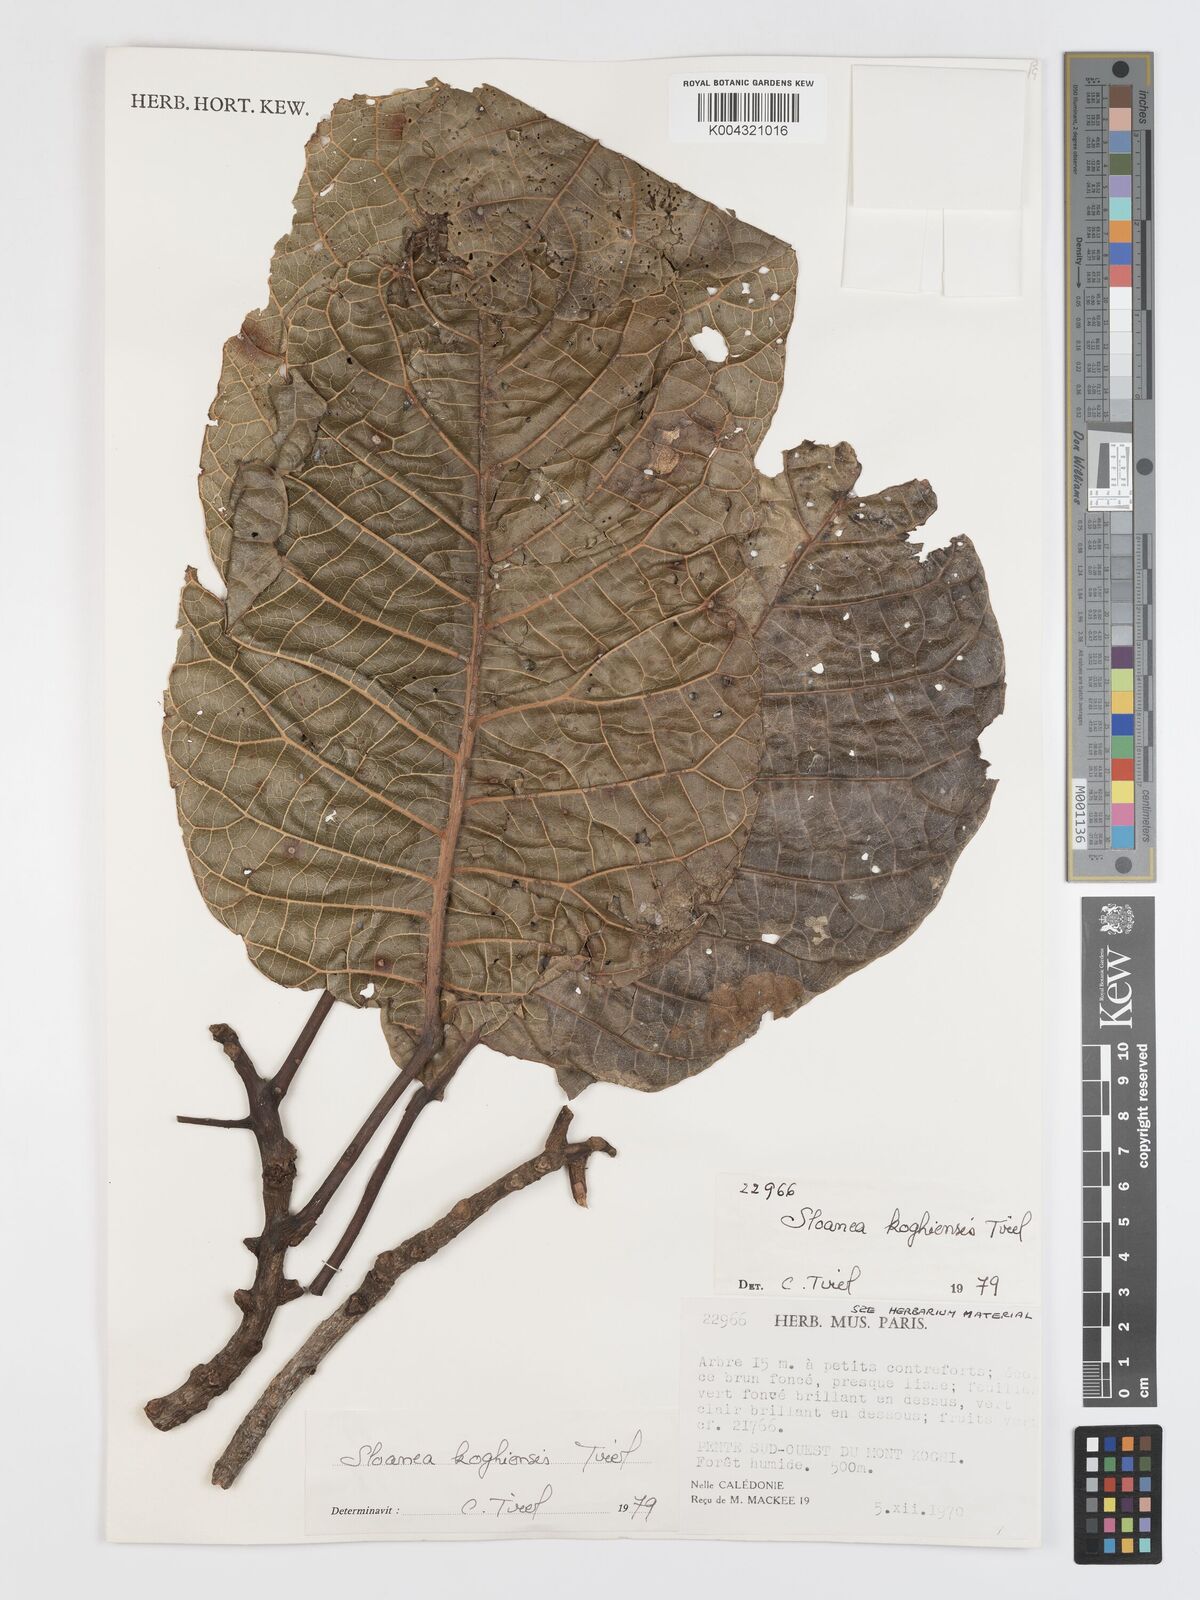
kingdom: Plantae
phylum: Tracheophyta
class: Magnoliopsida
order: Oxalidales
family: Elaeocarpaceae
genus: Sloanea
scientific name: Sloanea koghiensis
